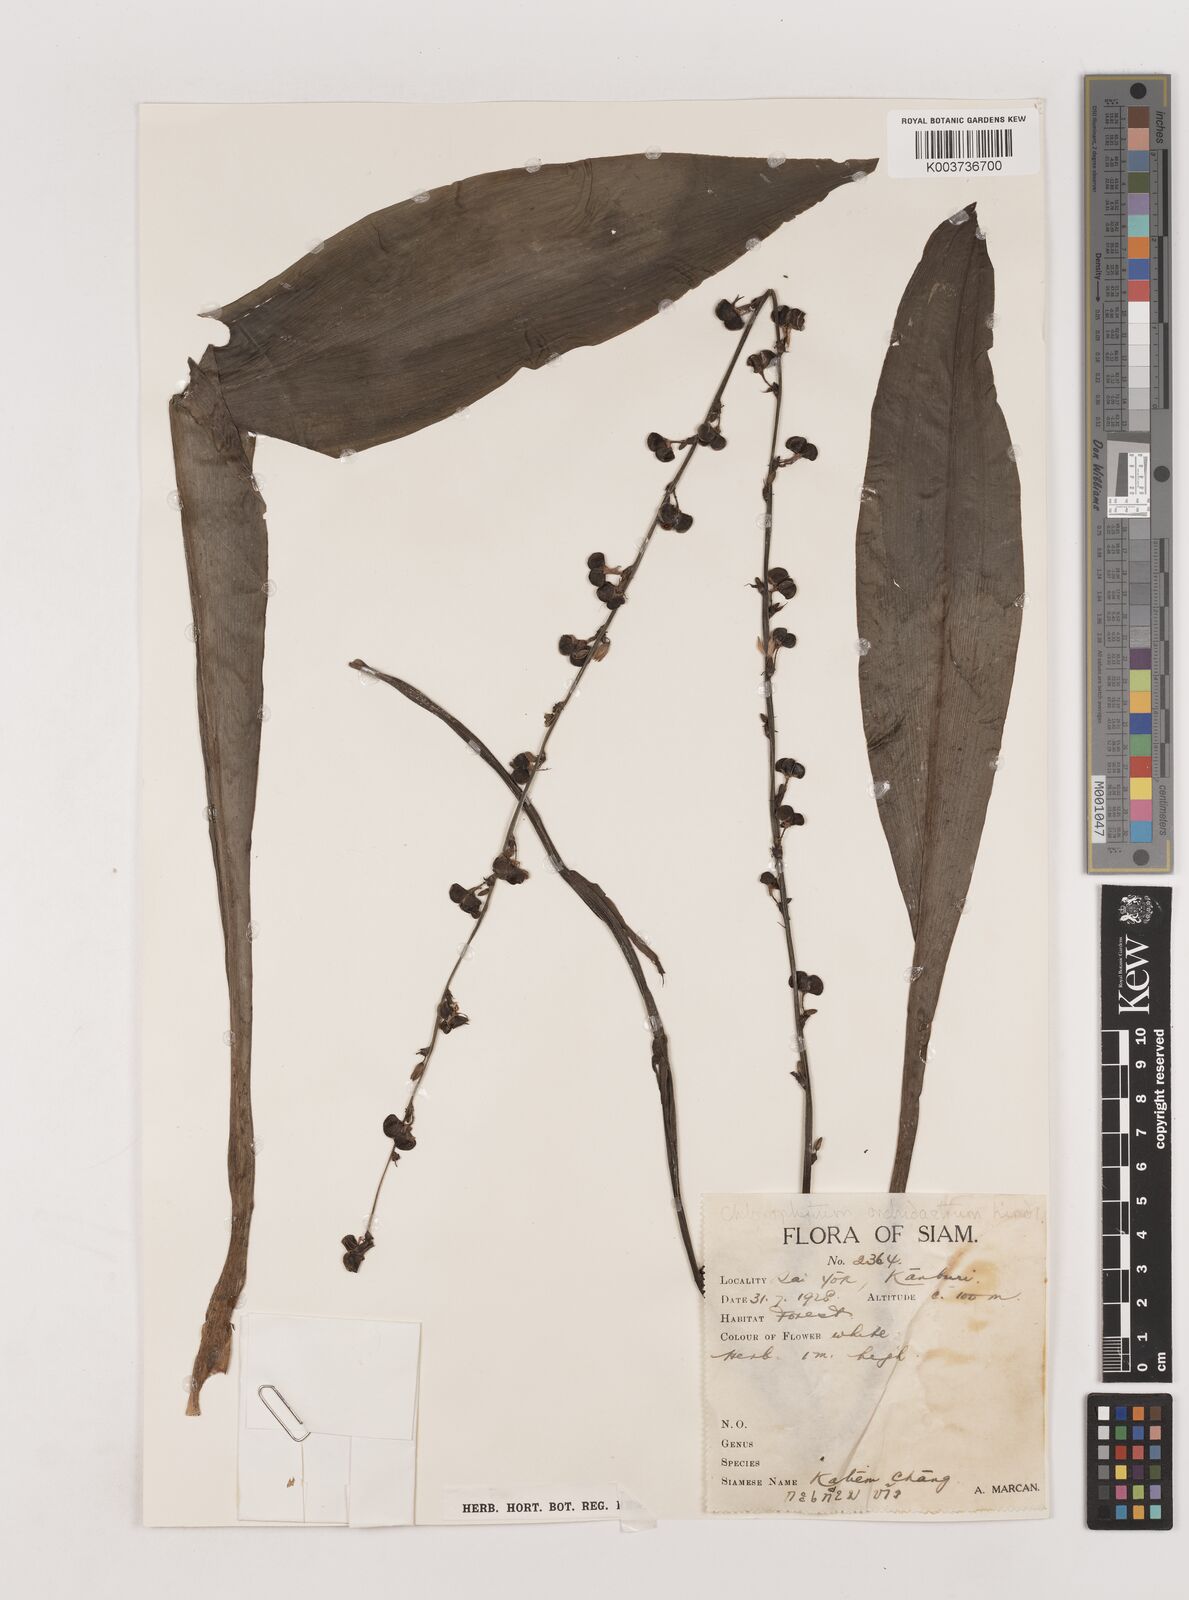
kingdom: Plantae
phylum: Tracheophyta
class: Liliopsida
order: Asparagales
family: Asparagaceae
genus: Chlorophytum
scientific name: Chlorophytum orchidastrum
